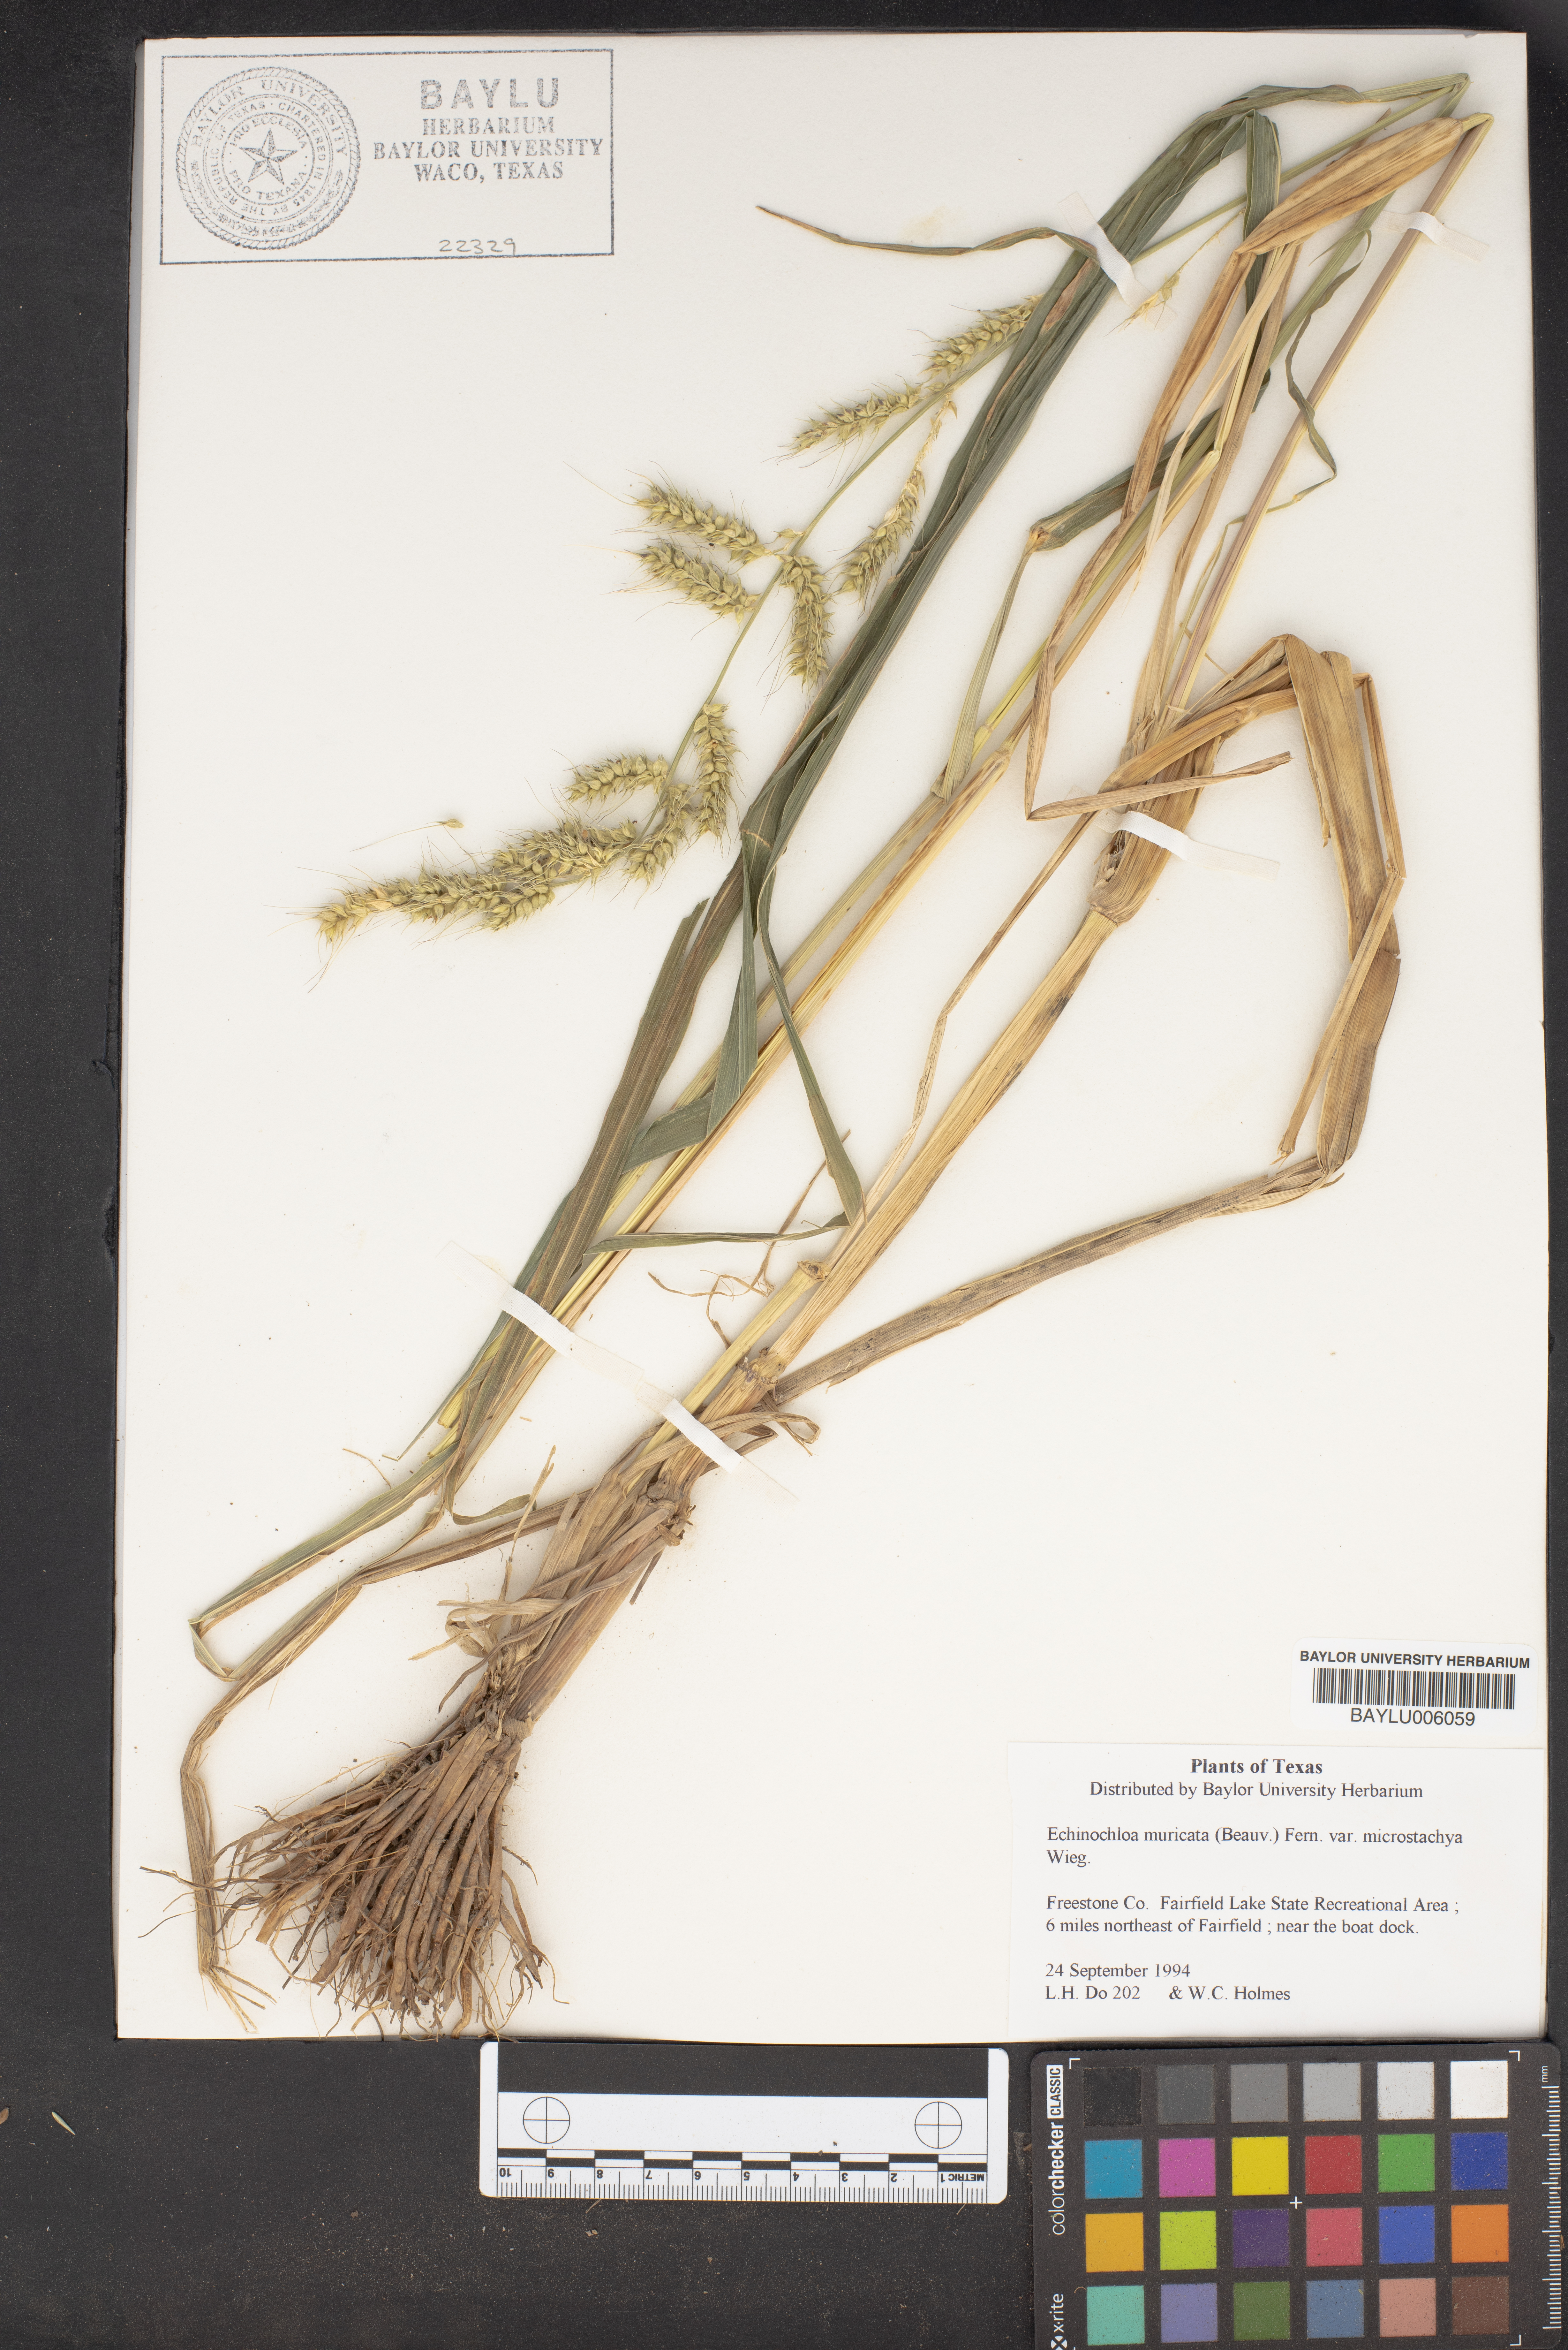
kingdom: Plantae
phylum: Tracheophyta
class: Liliopsida
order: Poales
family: Poaceae
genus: Echinochloa
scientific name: Echinochloa muricata
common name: American barnyard grass
